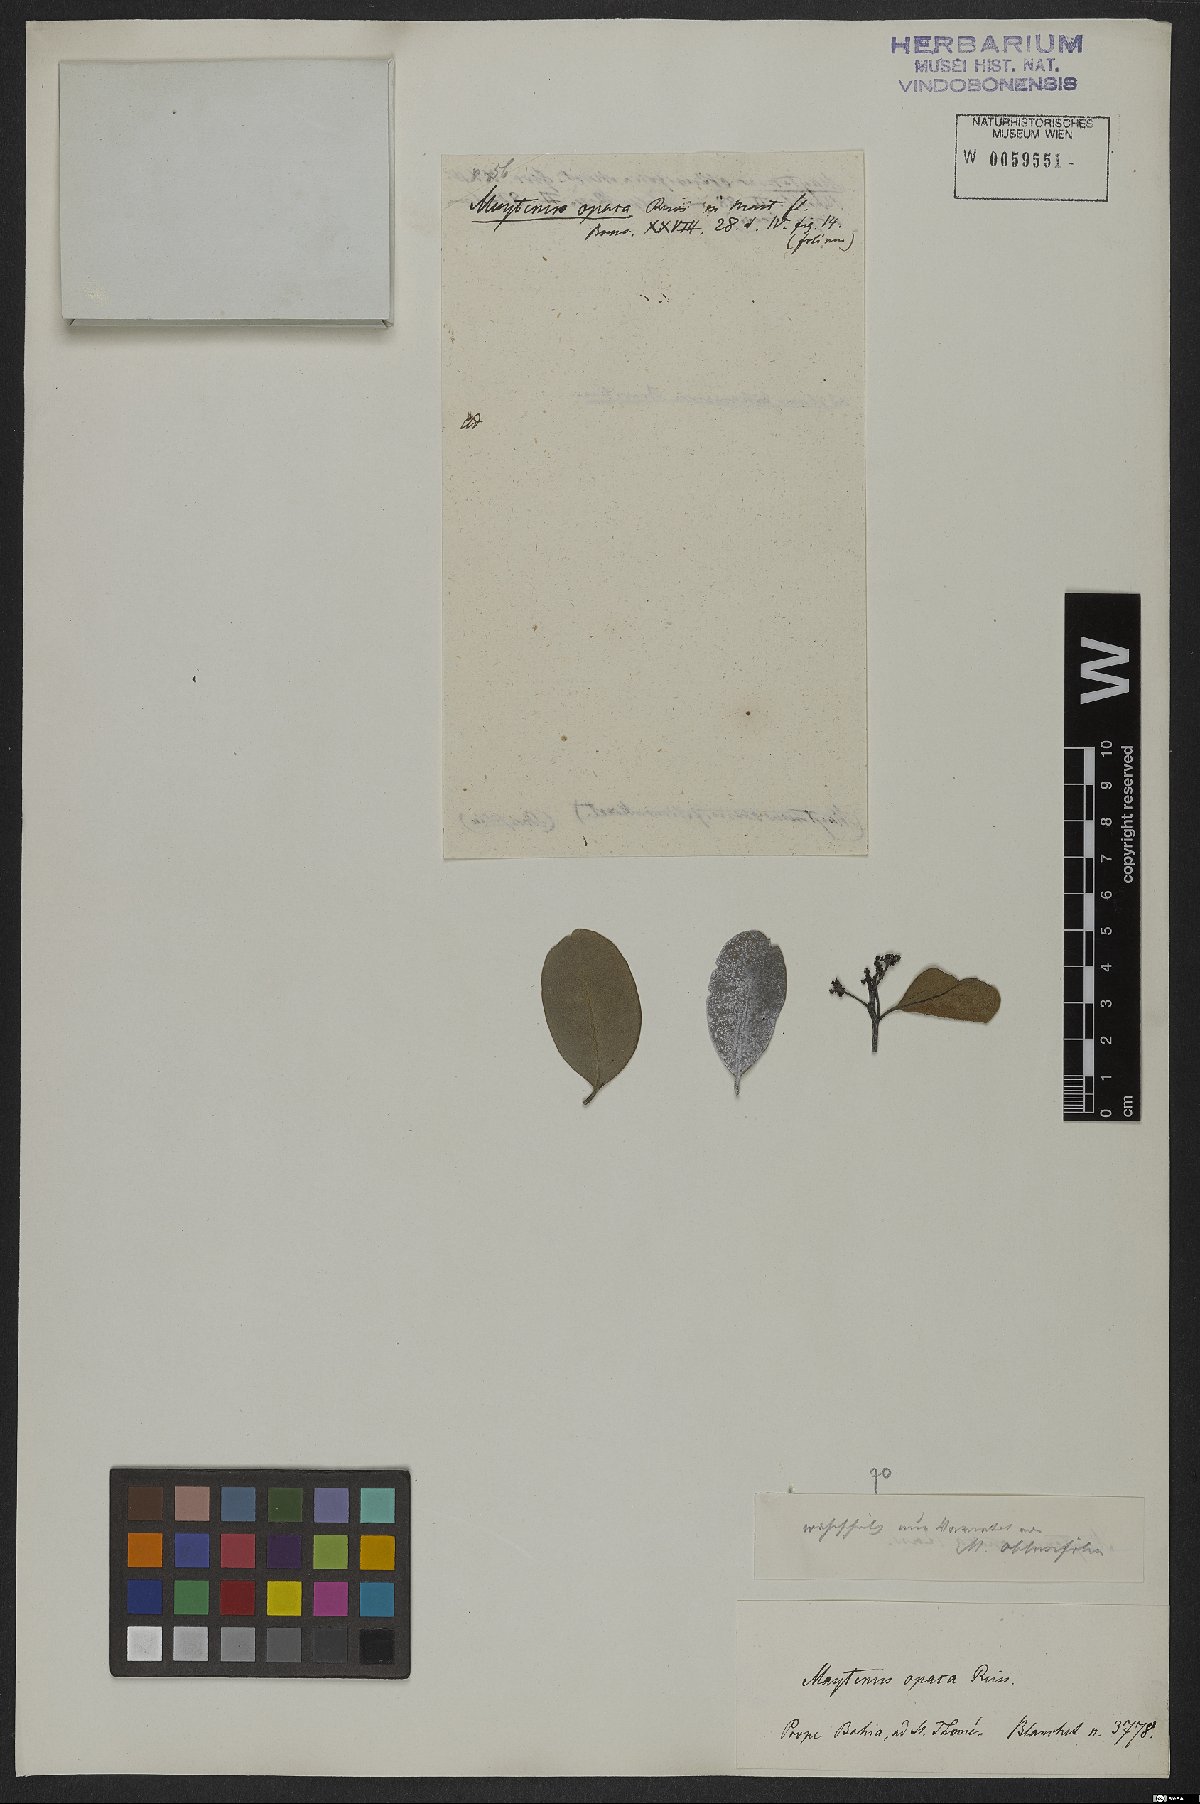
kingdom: Plantae
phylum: Tracheophyta
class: Magnoliopsida
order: Celastrales
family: Celastraceae
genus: Monteverdia
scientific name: Monteverdia obtusifolia
